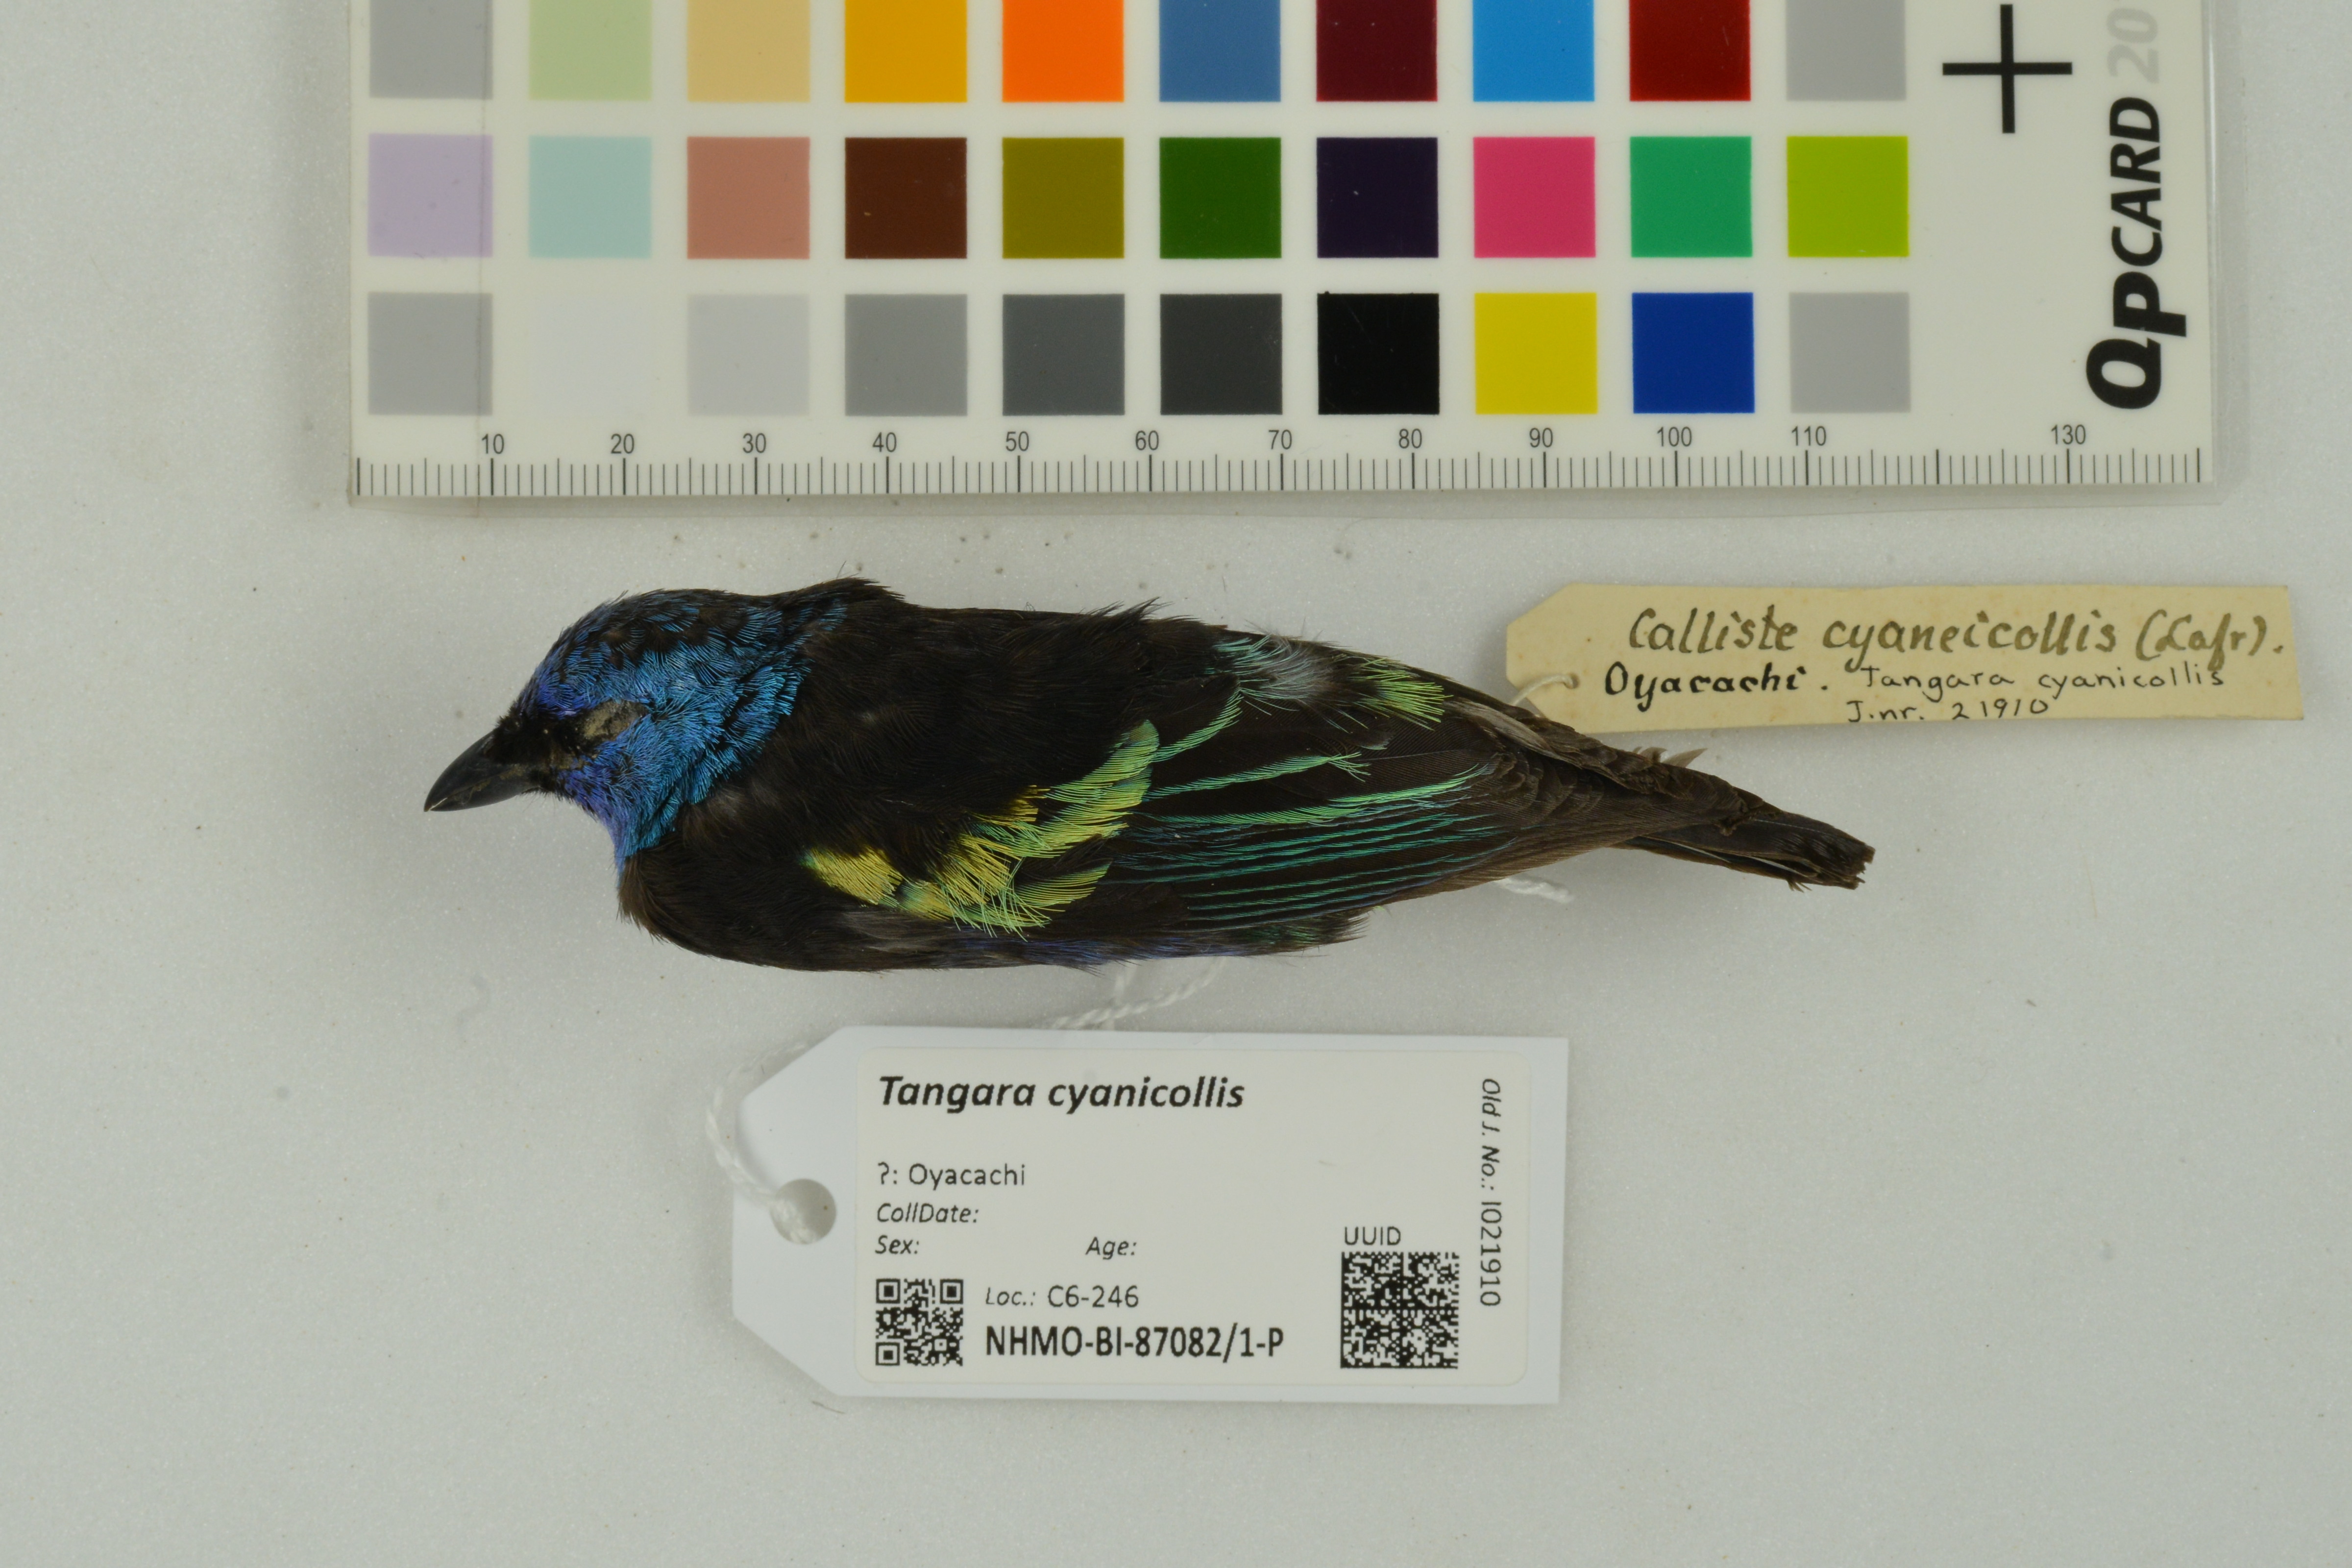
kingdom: Animalia
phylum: Chordata
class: Aves
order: Passeriformes
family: Thraupidae
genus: Stilpnia
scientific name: Stilpnia cyanicollis
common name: Blue-necked tanager
